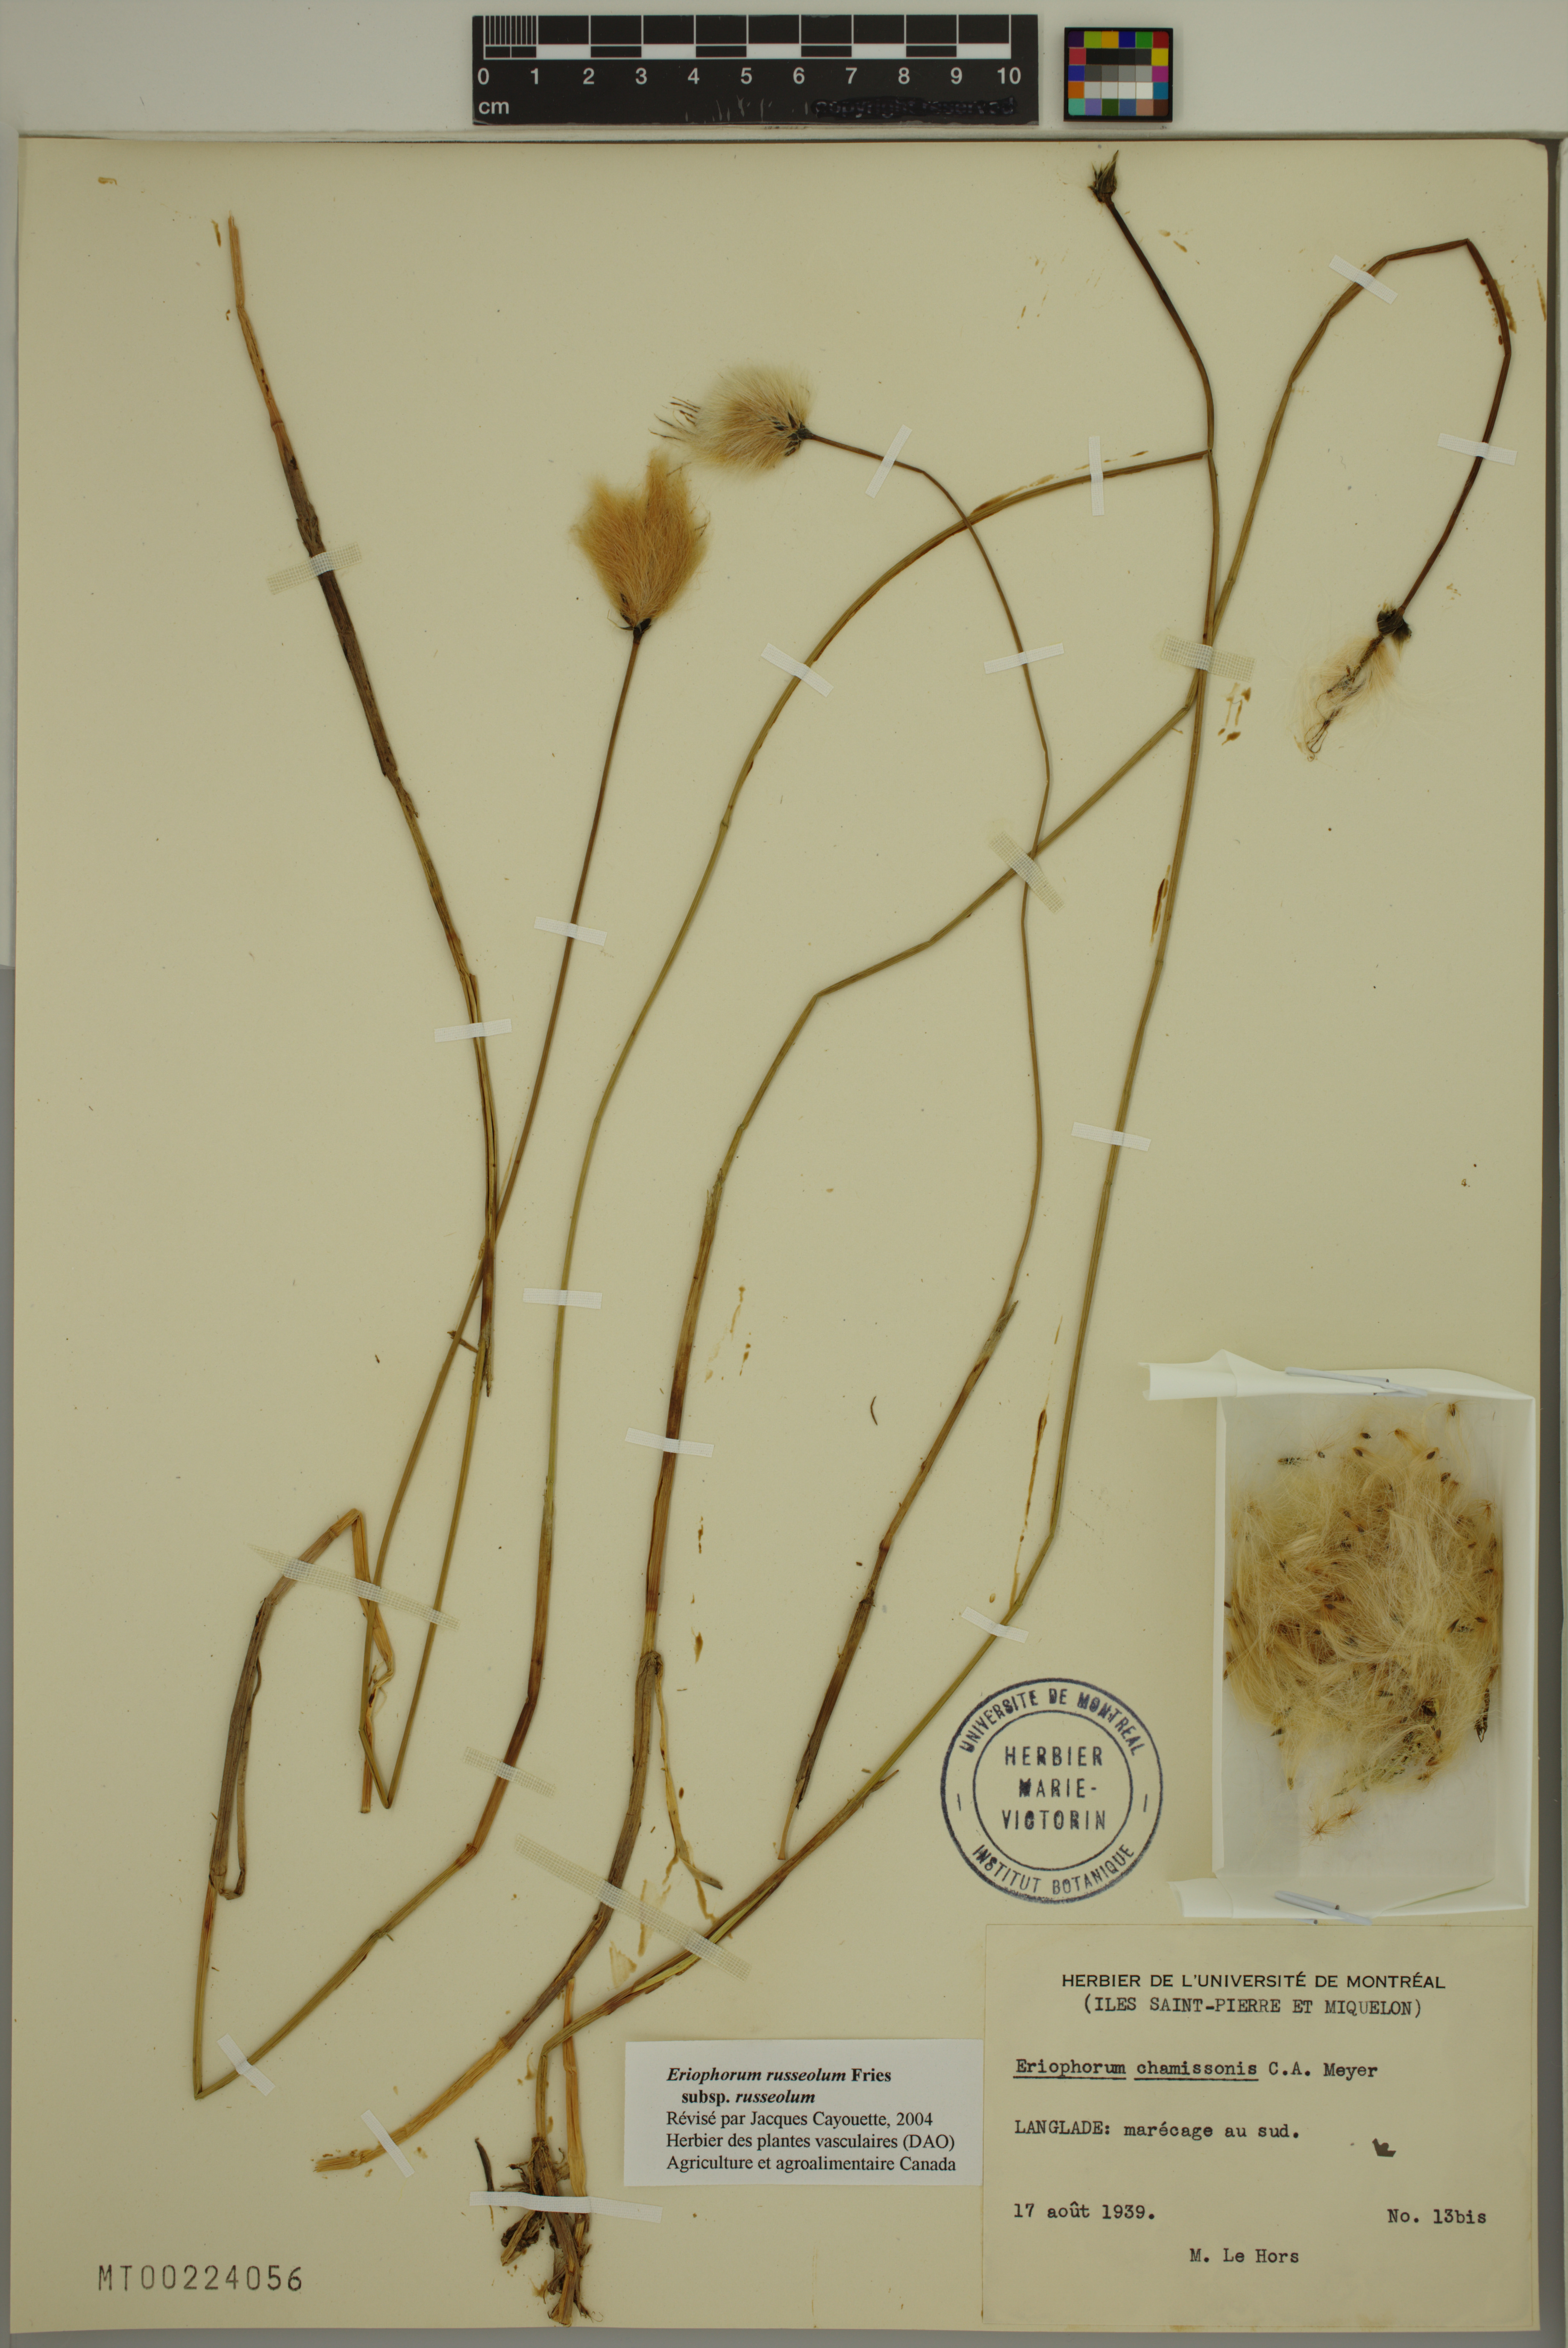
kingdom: Plantae
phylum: Tracheophyta
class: Liliopsida
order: Poales
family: Cyperaceae
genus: Eriophorum
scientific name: Eriophorum russeolum
